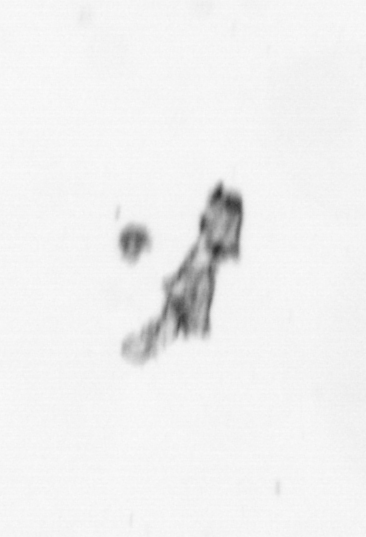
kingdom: Animalia
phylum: Cnidaria
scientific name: Cnidaria
